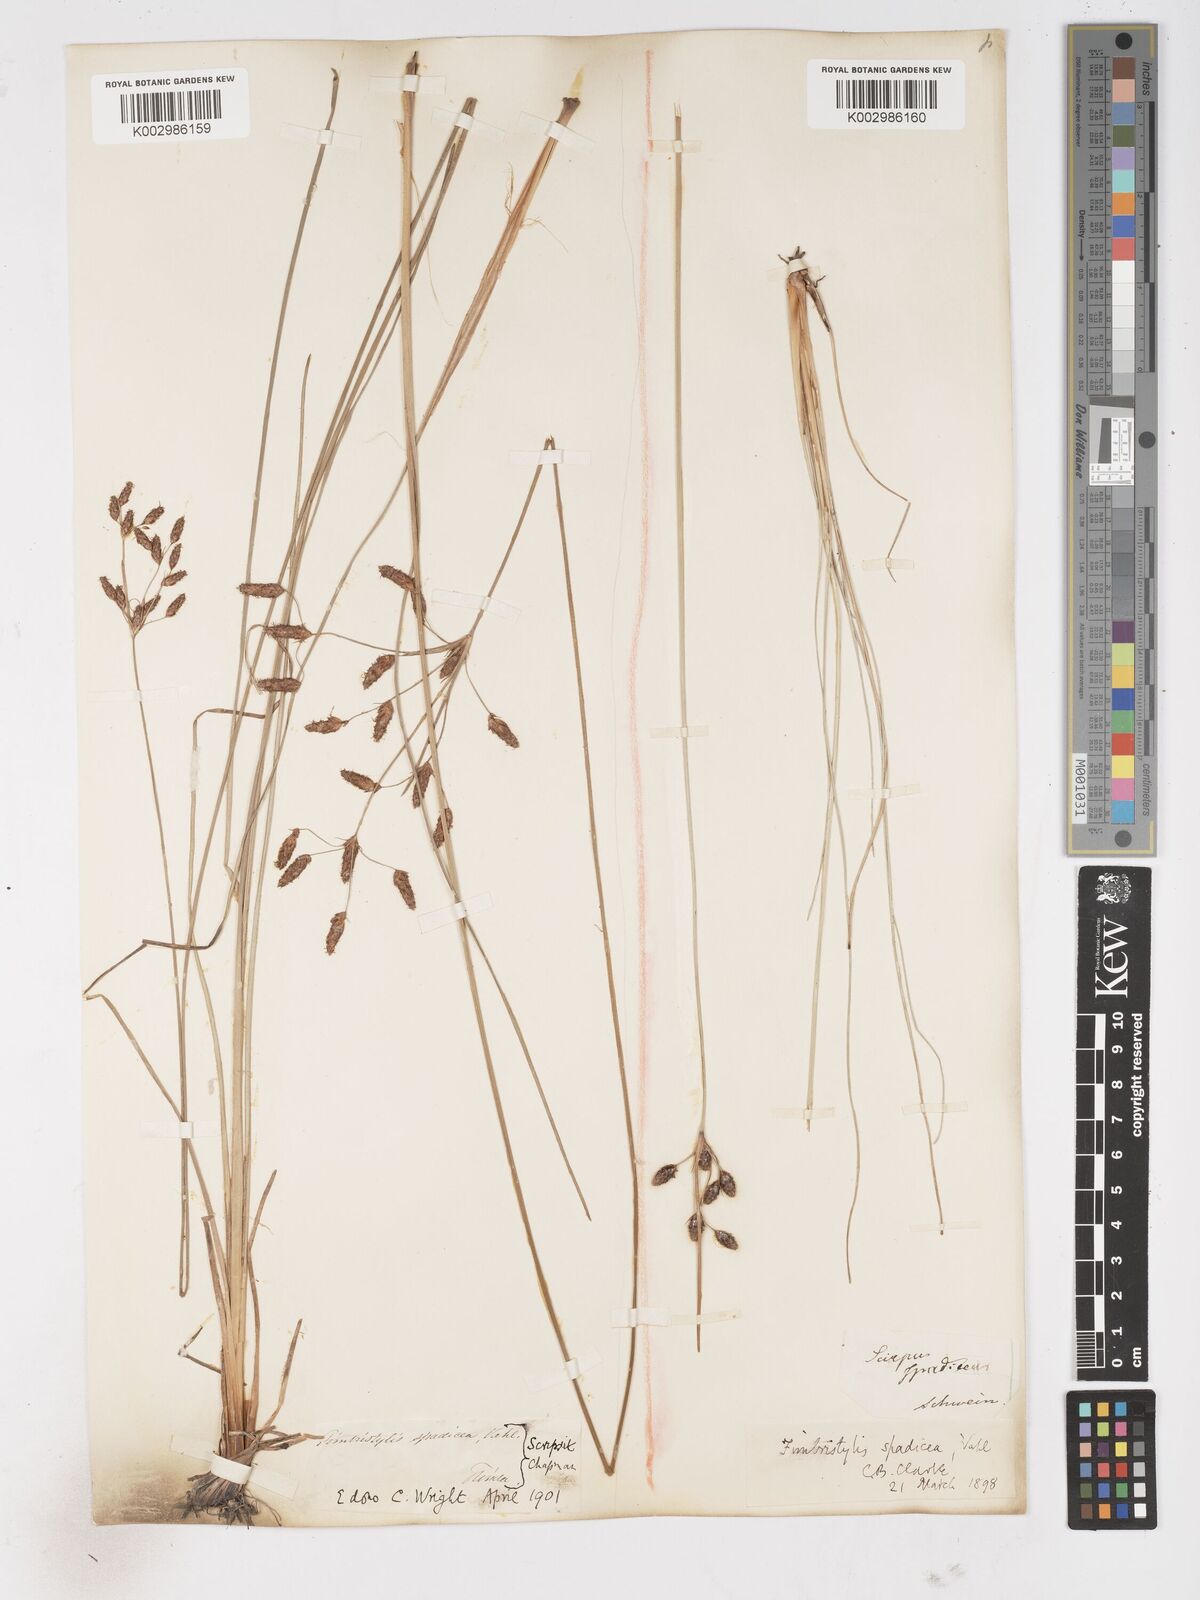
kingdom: Plantae
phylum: Tracheophyta
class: Liliopsida
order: Poales
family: Cyperaceae
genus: Fimbristylis
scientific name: Fimbristylis spadicea
